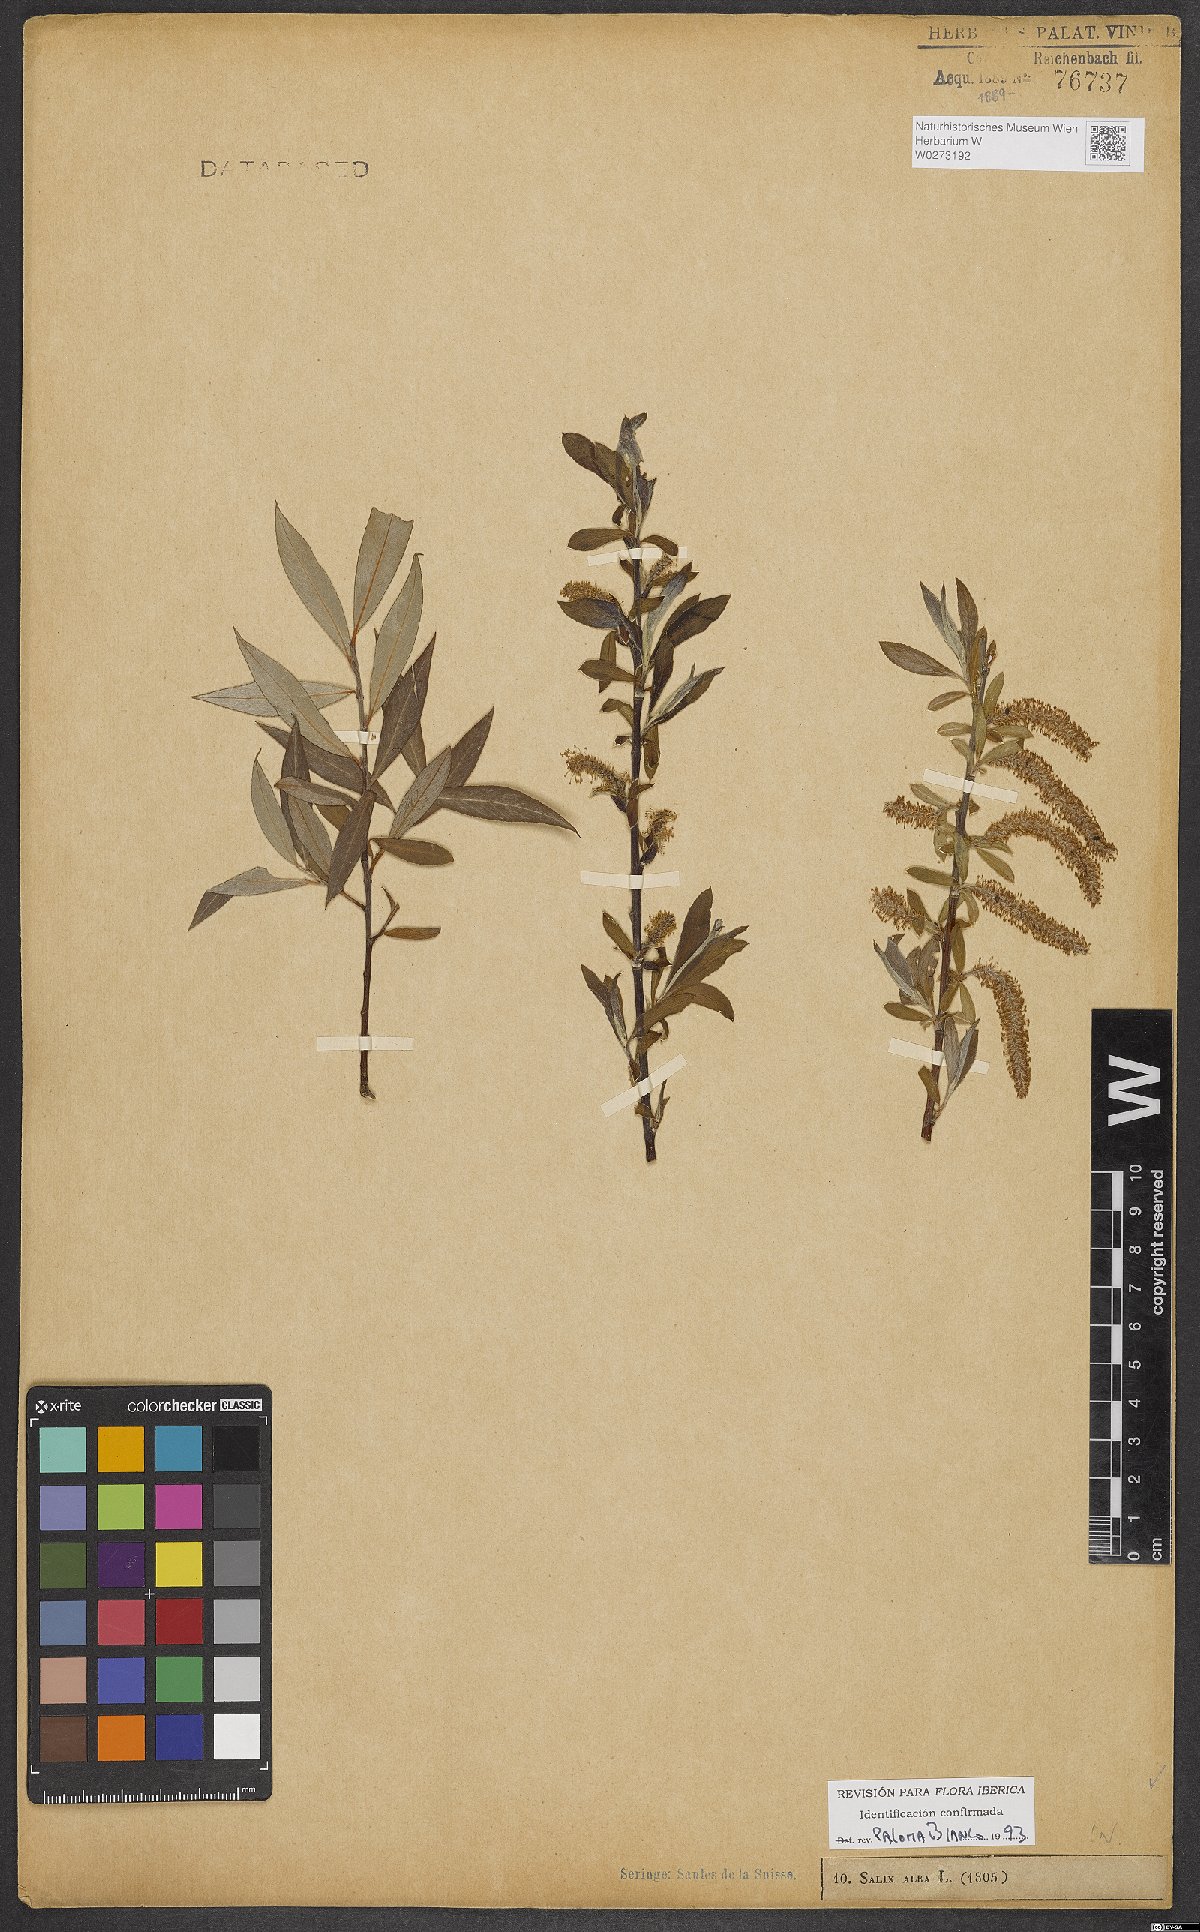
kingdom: Plantae
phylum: Tracheophyta
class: Magnoliopsida
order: Malpighiales
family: Salicaceae
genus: Salix
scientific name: Salix alba
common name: White willow
